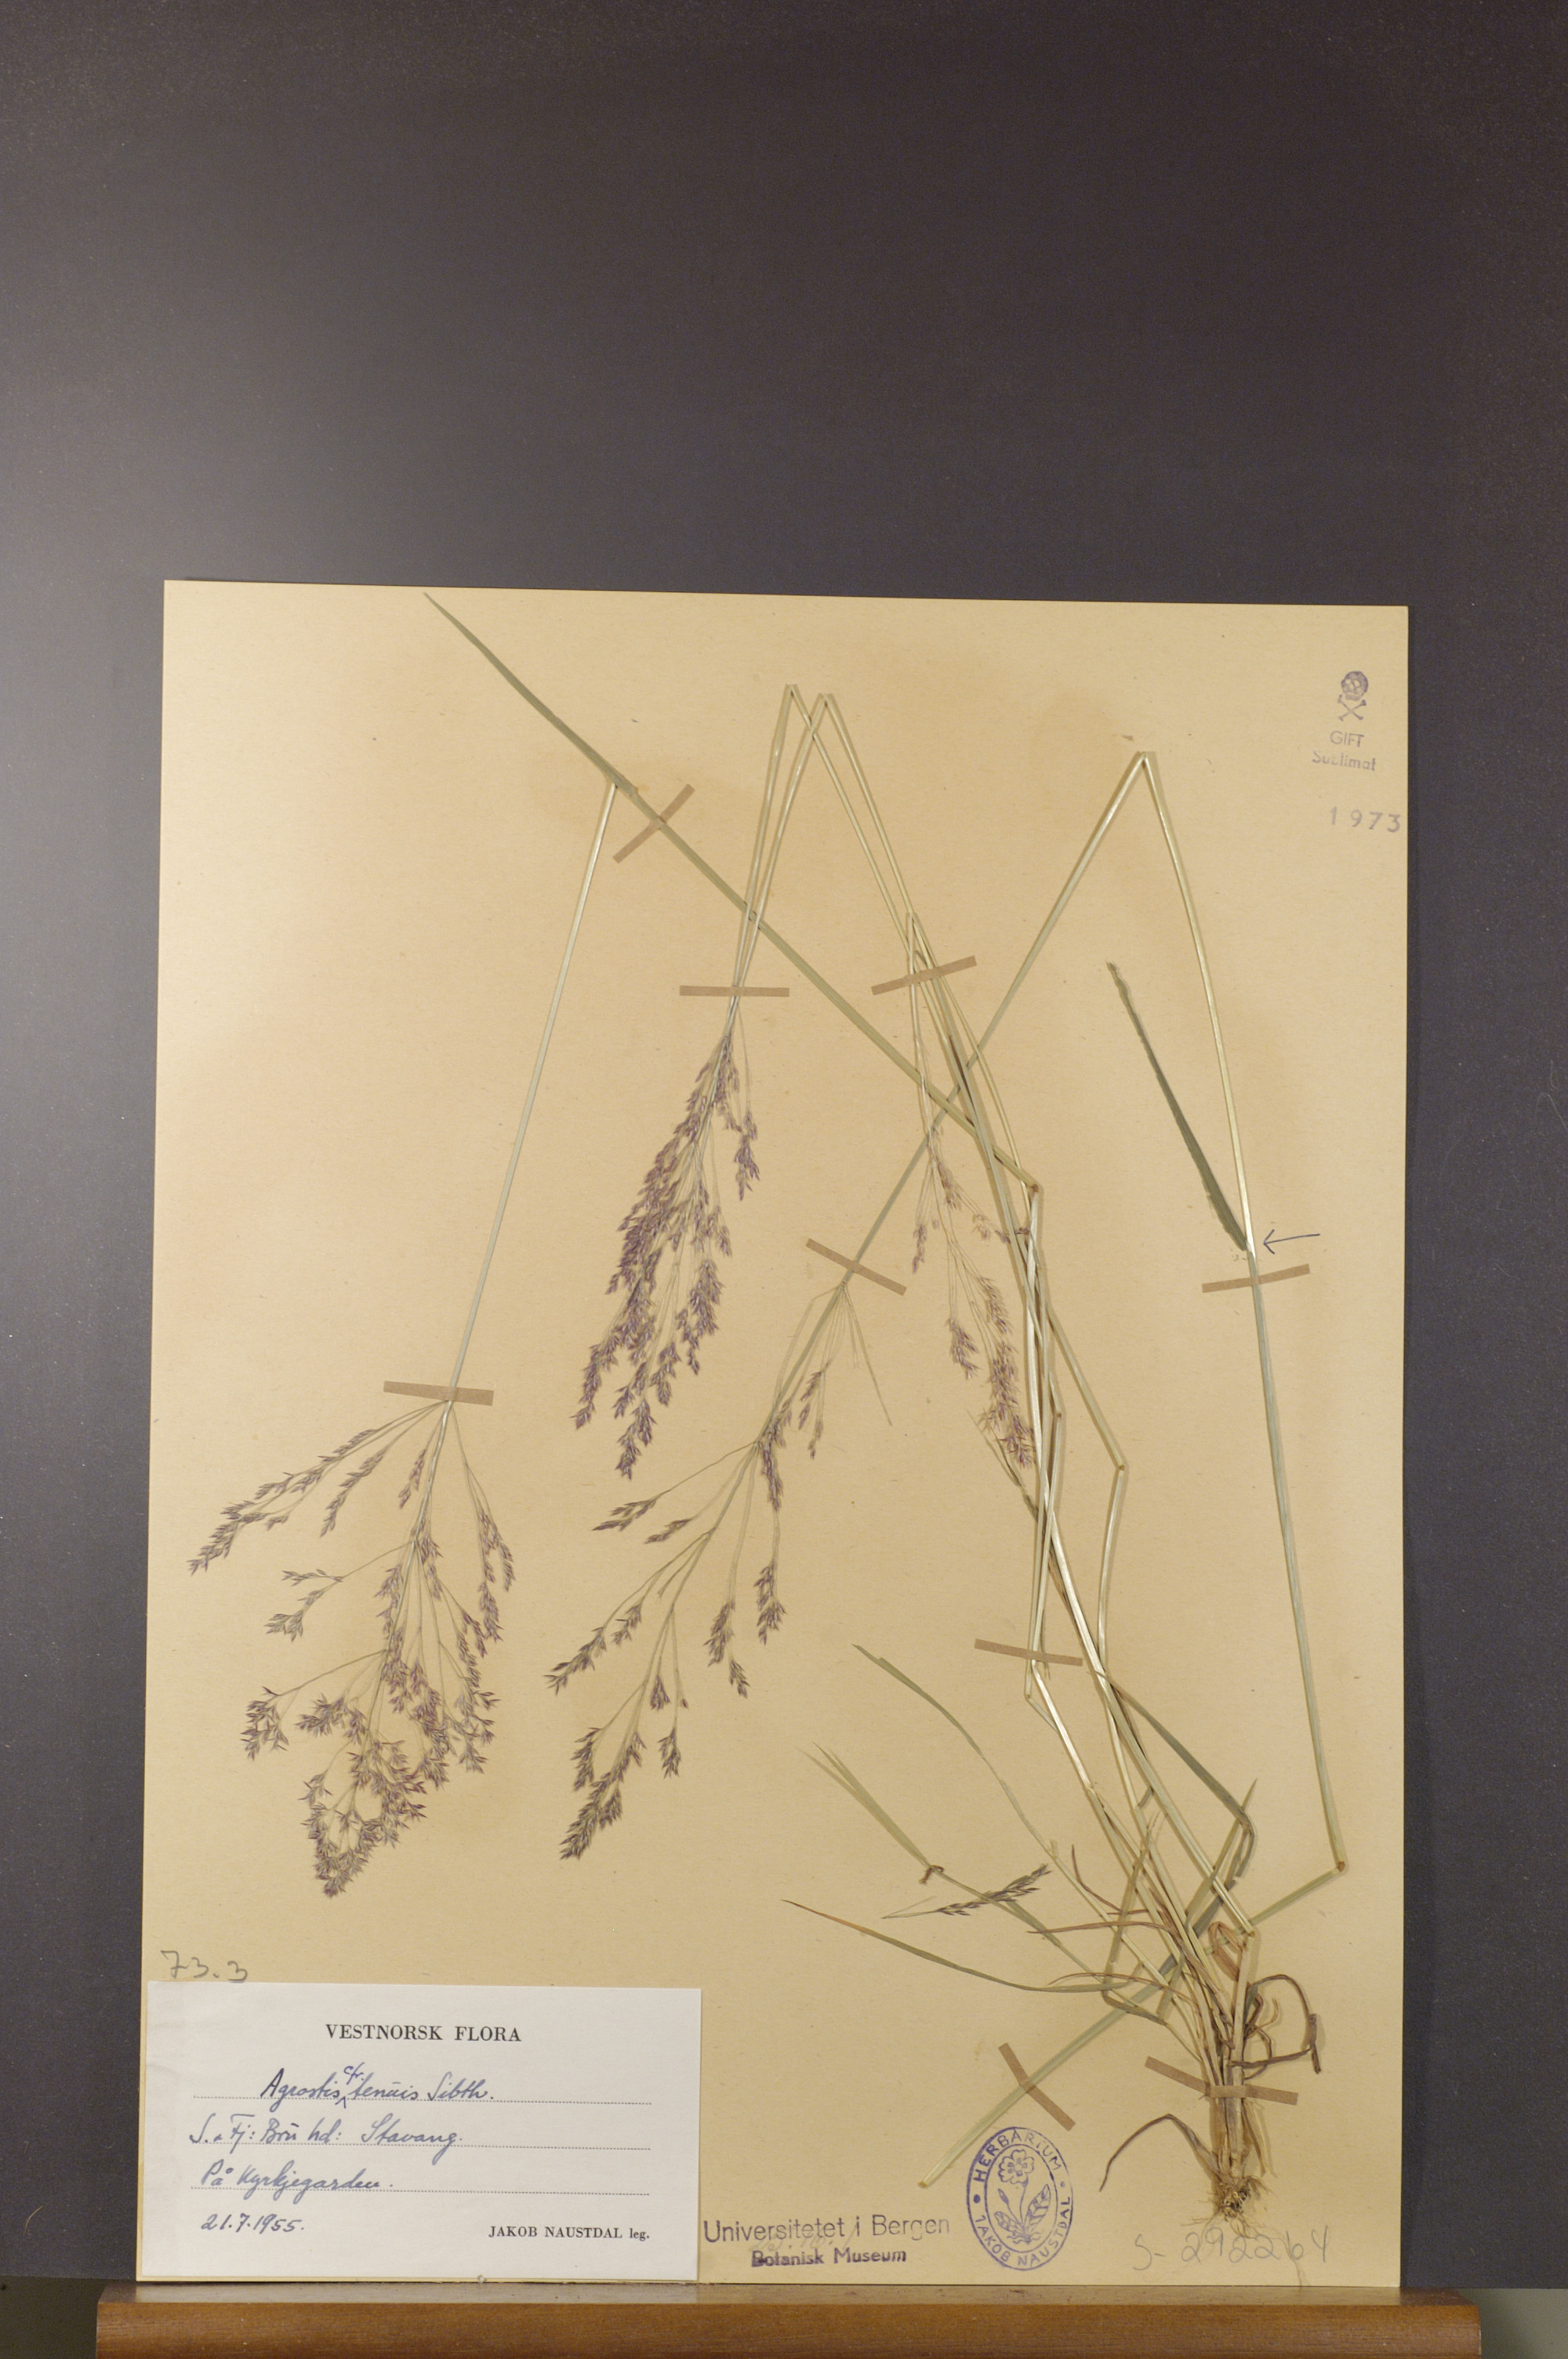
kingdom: Plantae
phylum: Tracheophyta
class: Liliopsida
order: Poales
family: Poaceae
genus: Agrostis
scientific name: Agrostis capillaris
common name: Colonial bentgrass
